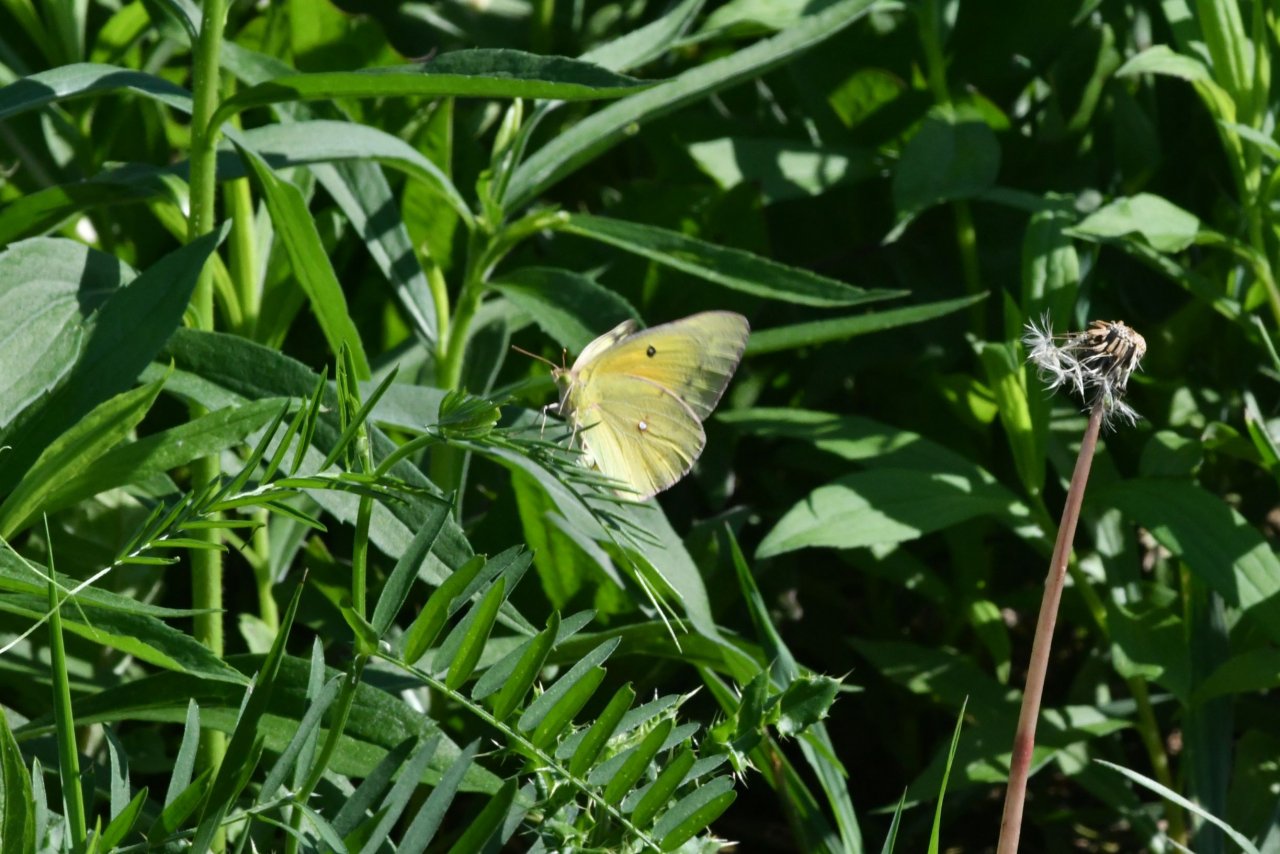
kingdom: Animalia
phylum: Arthropoda
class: Insecta
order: Lepidoptera
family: Pieridae
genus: Colias
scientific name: Colias eurytheme
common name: Orange Sulphur
